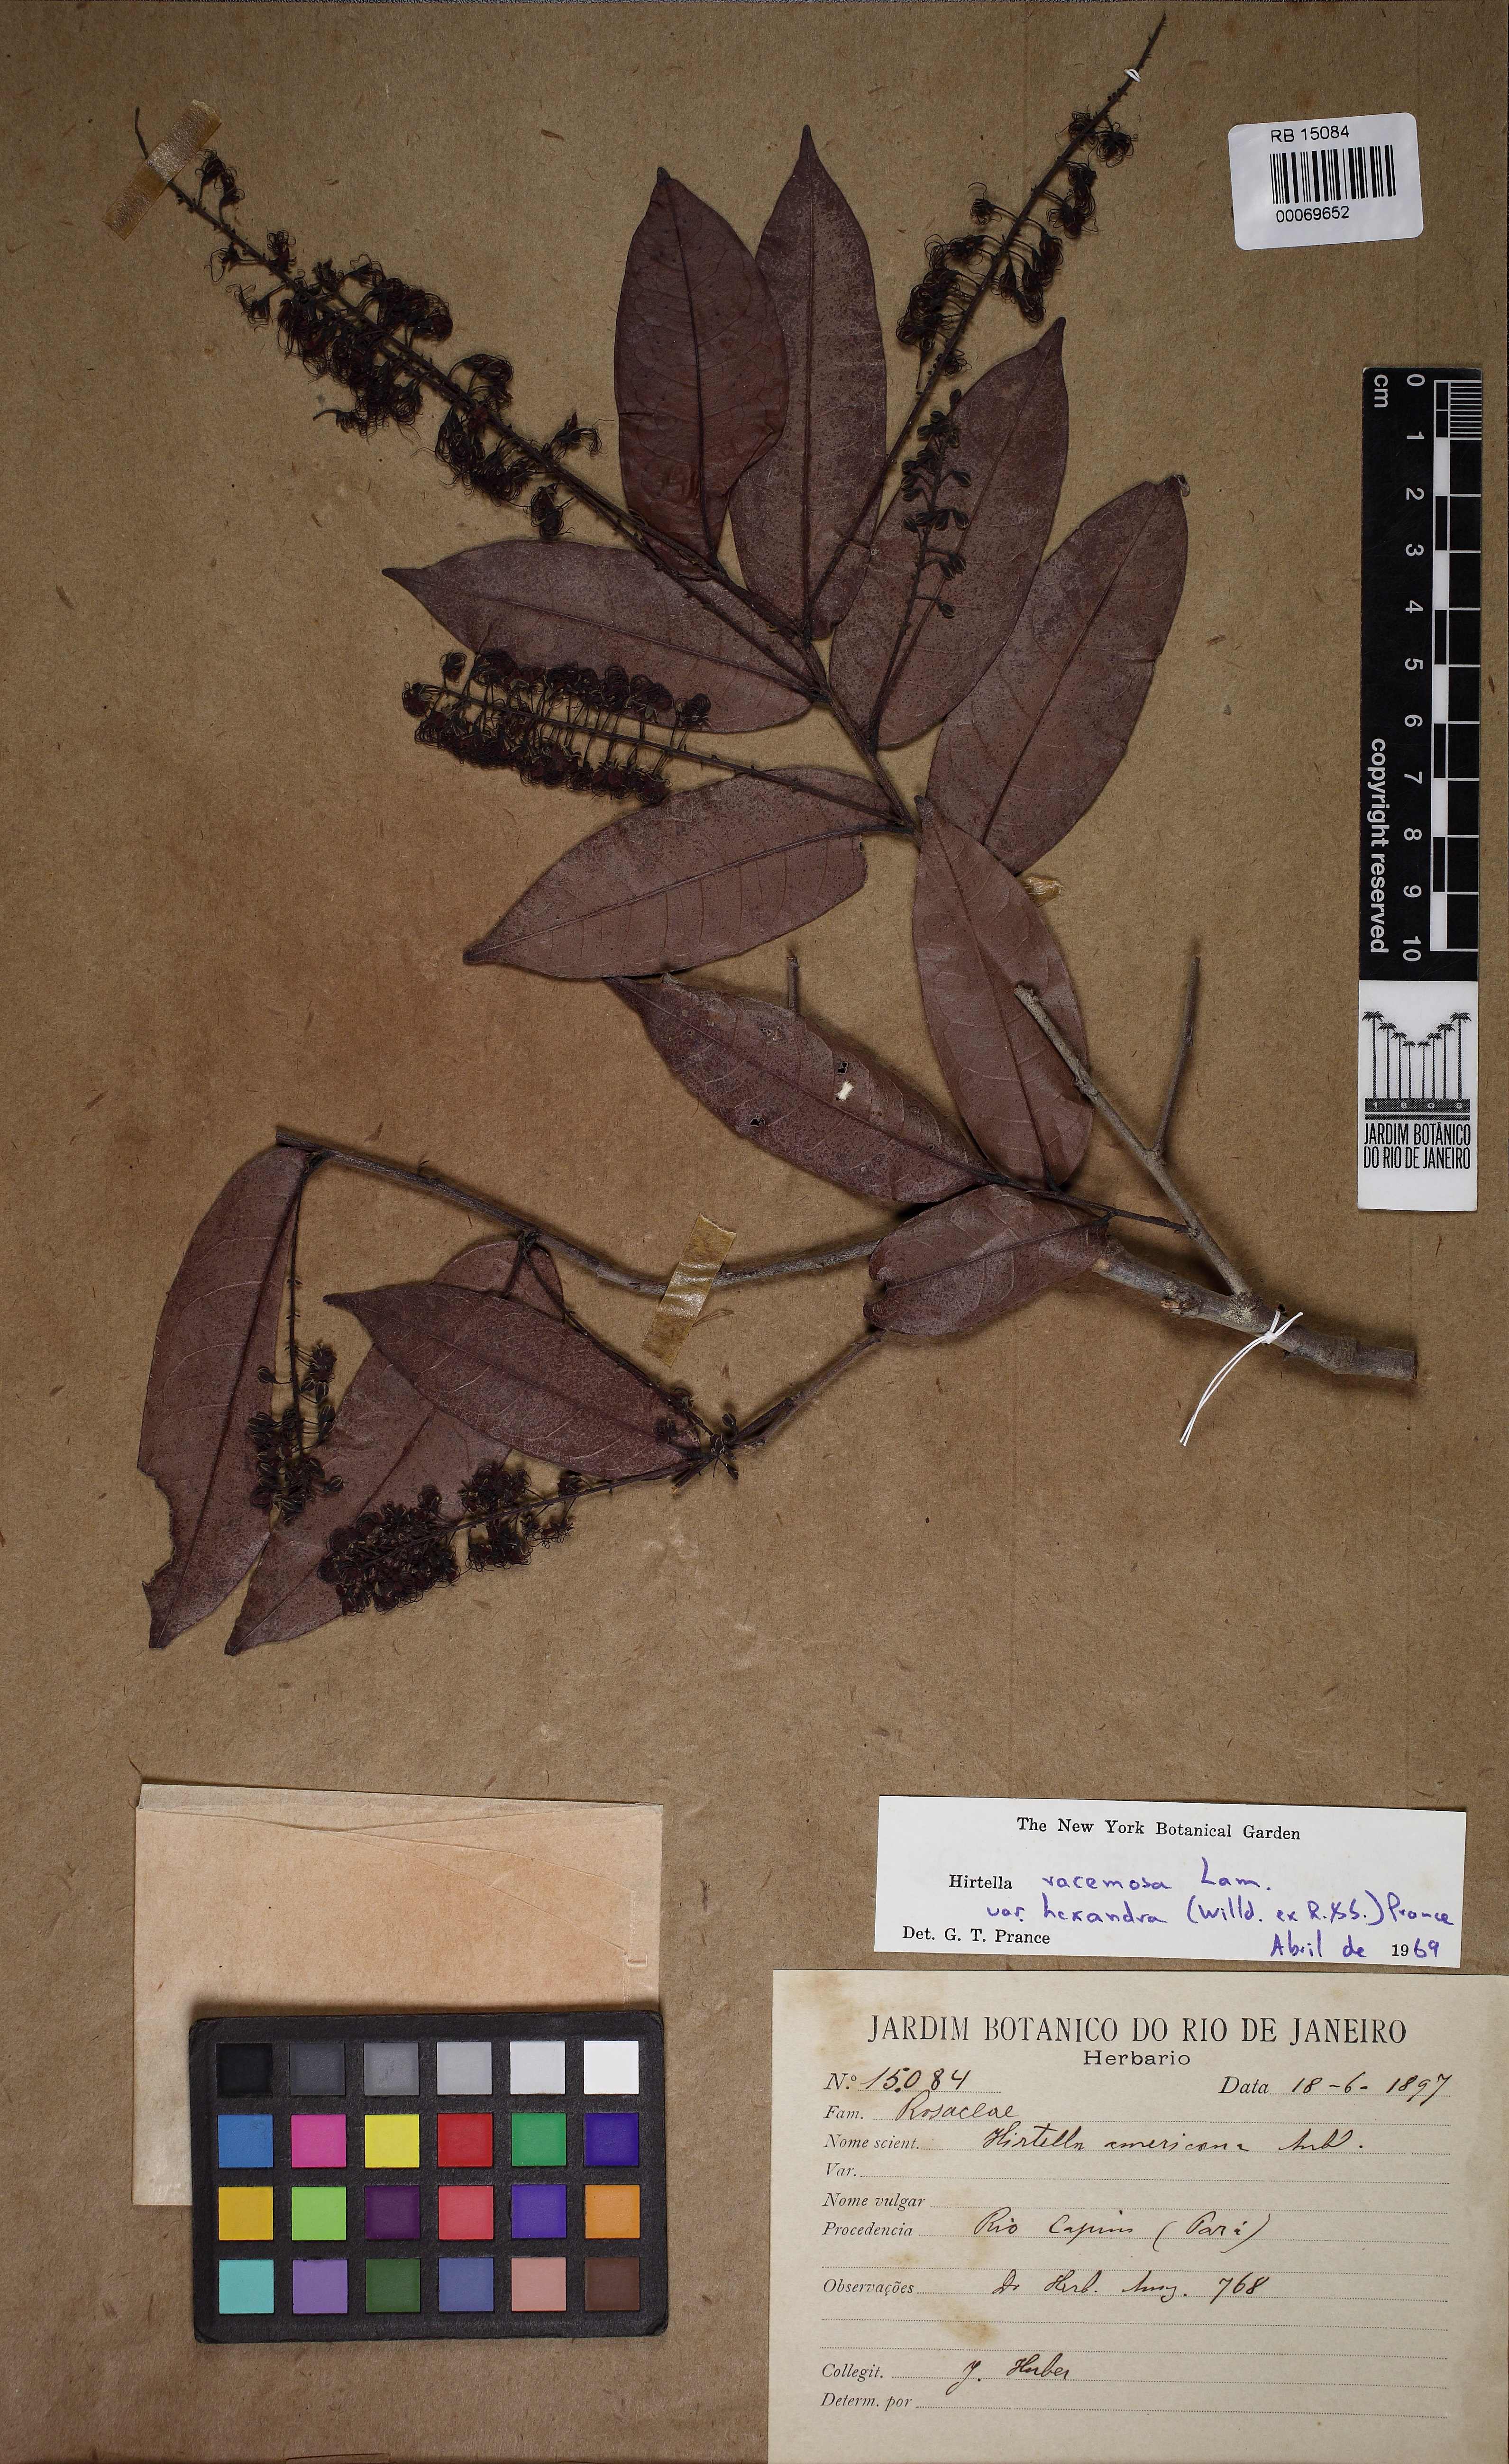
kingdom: Plantae
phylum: Tracheophyta
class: Magnoliopsida
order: Malpighiales
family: Chrysobalanaceae
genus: Hirtella
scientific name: Hirtella racemosa
